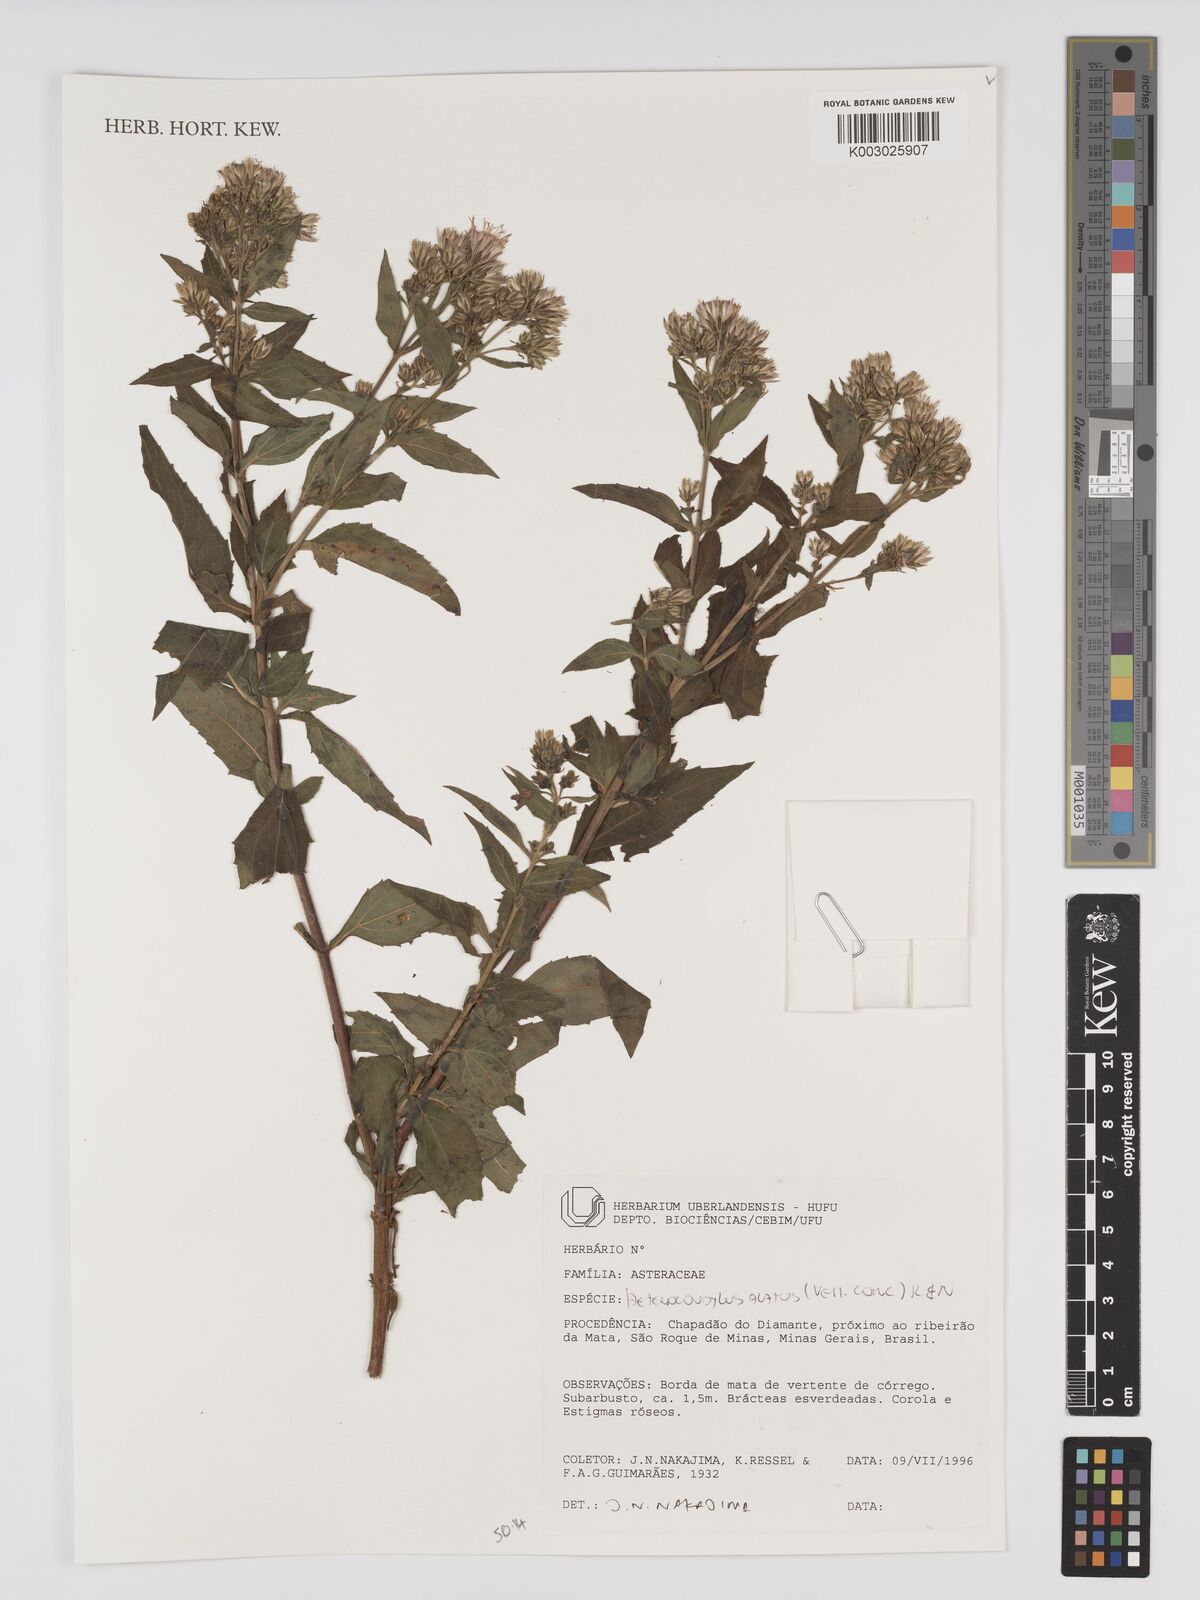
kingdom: Plantae
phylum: Tracheophyta
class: Magnoliopsida
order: Asterales
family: Asteraceae
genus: Heterocondylus
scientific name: Heterocondylus alatus
